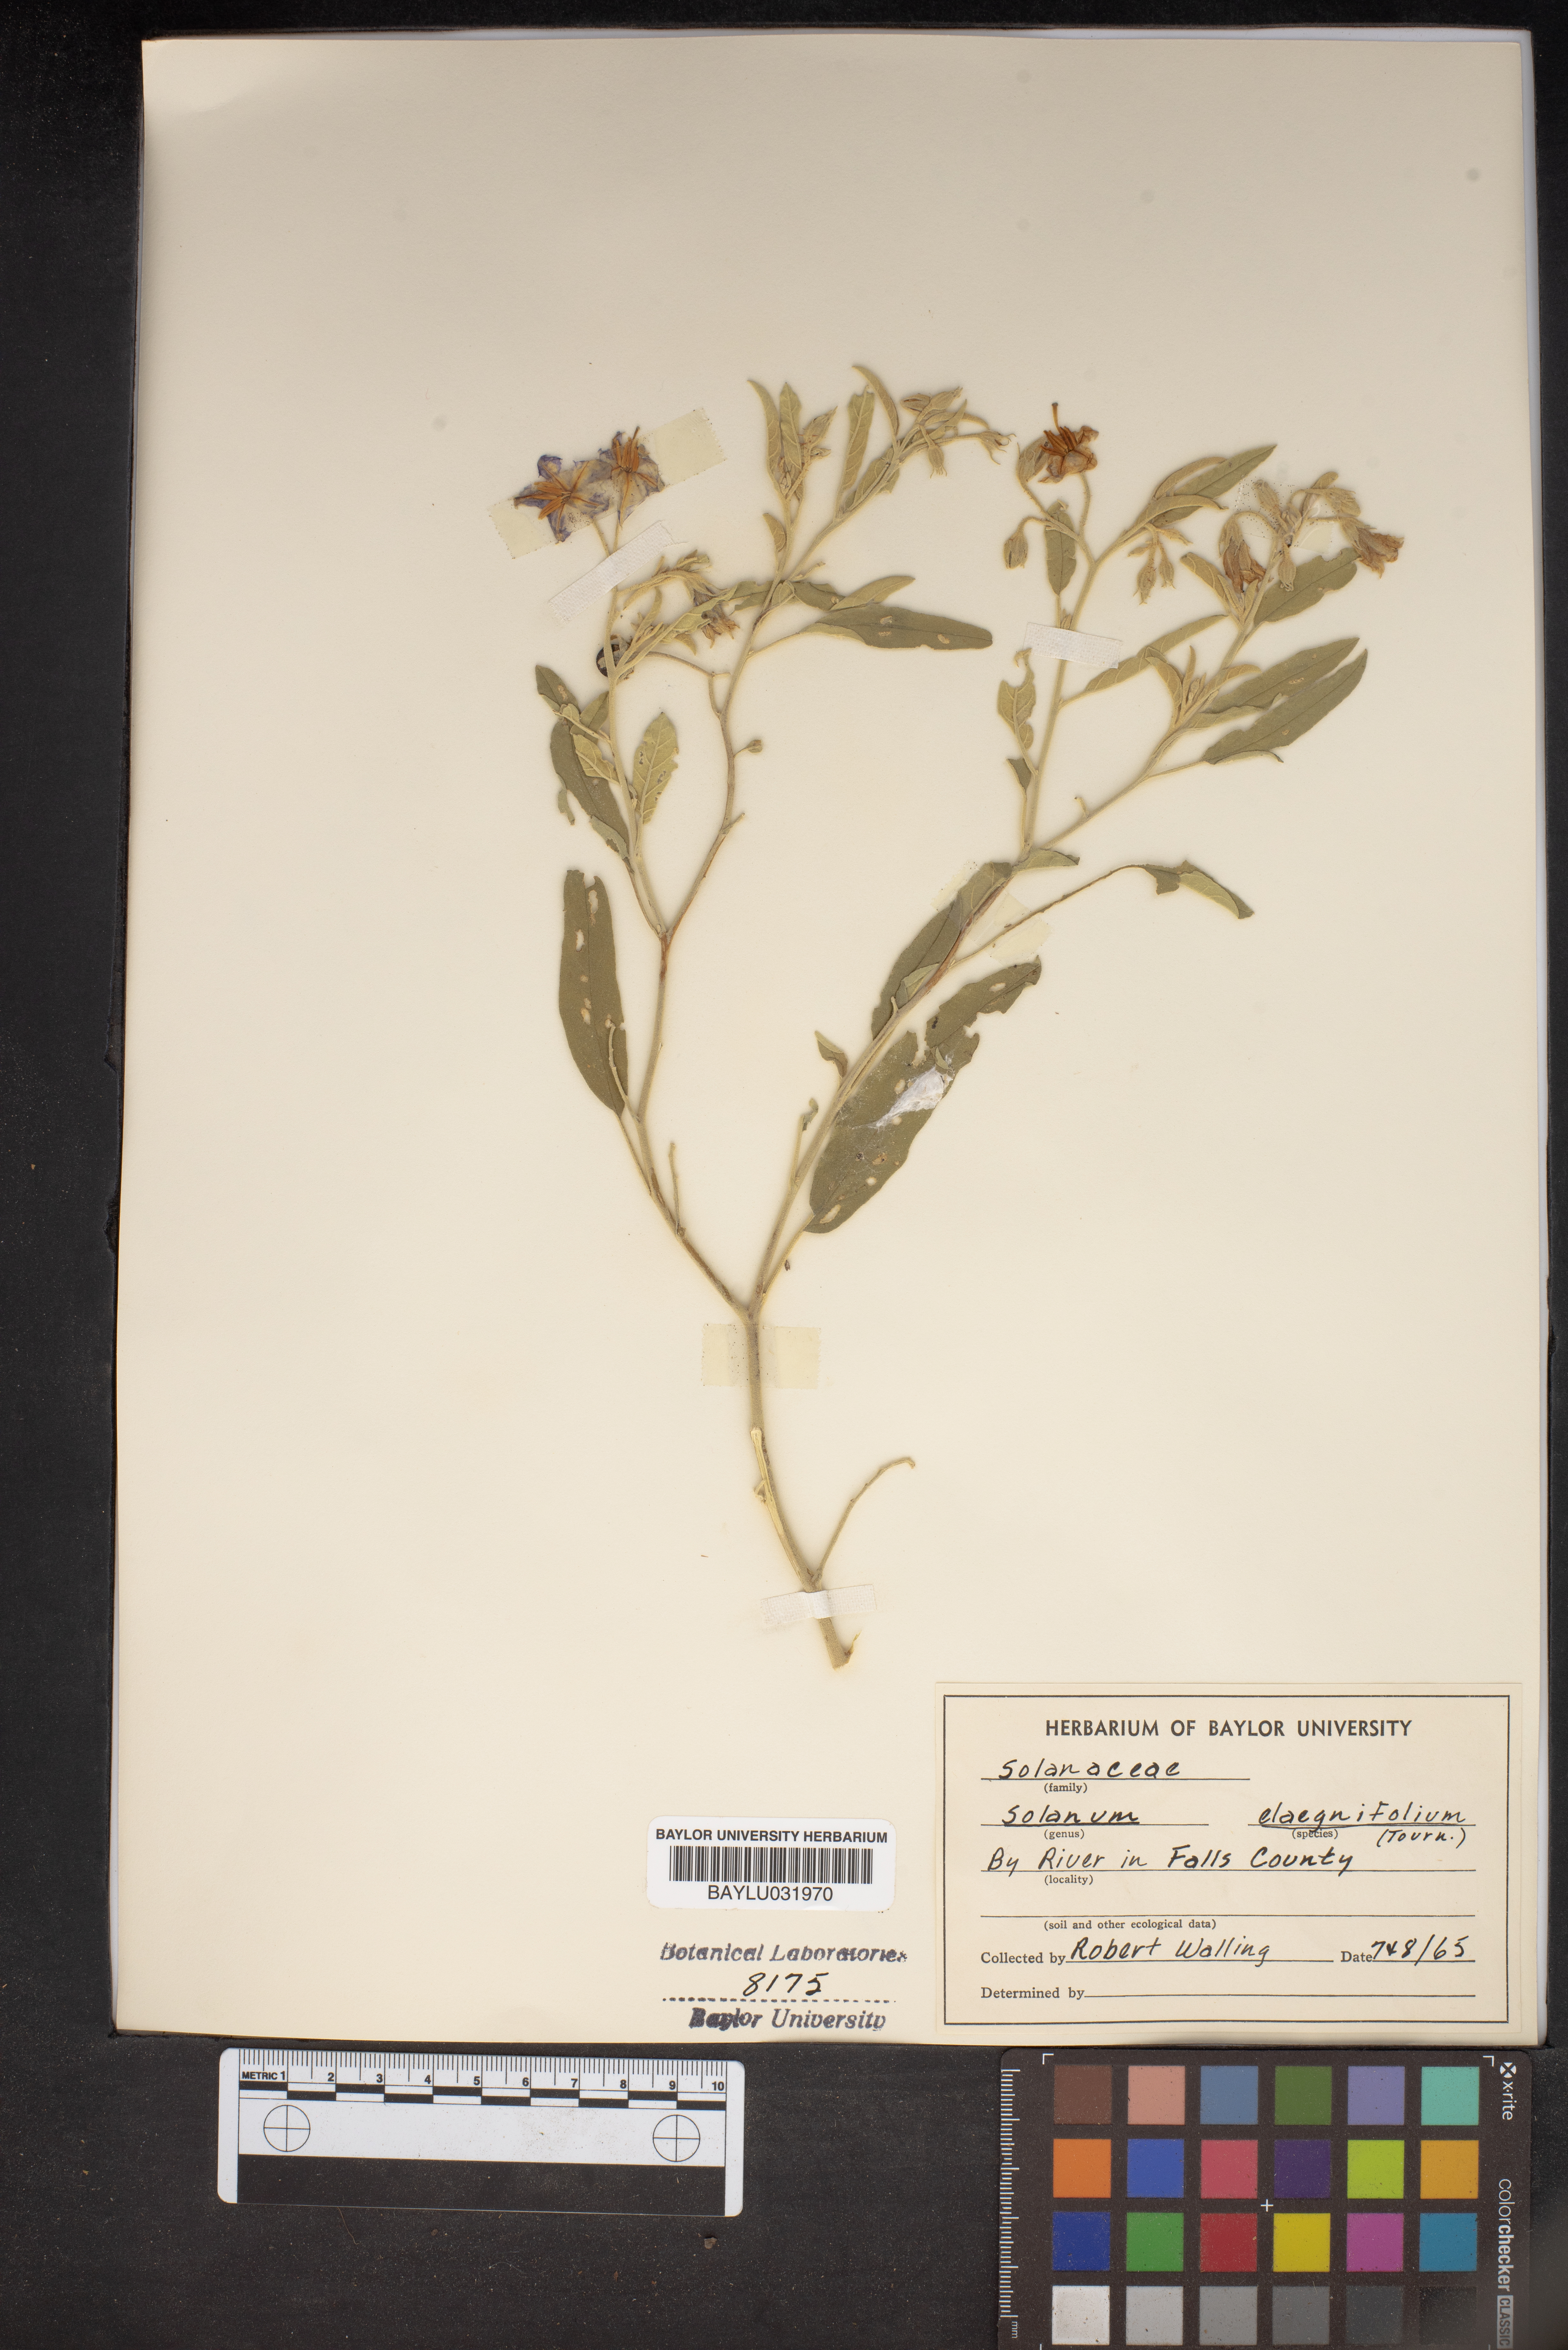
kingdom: Plantae
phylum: Tracheophyta
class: Magnoliopsida
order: Solanales
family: Solanaceae
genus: Solanum
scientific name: Solanum elaeagnifolium
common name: Silverleaf nightshade
